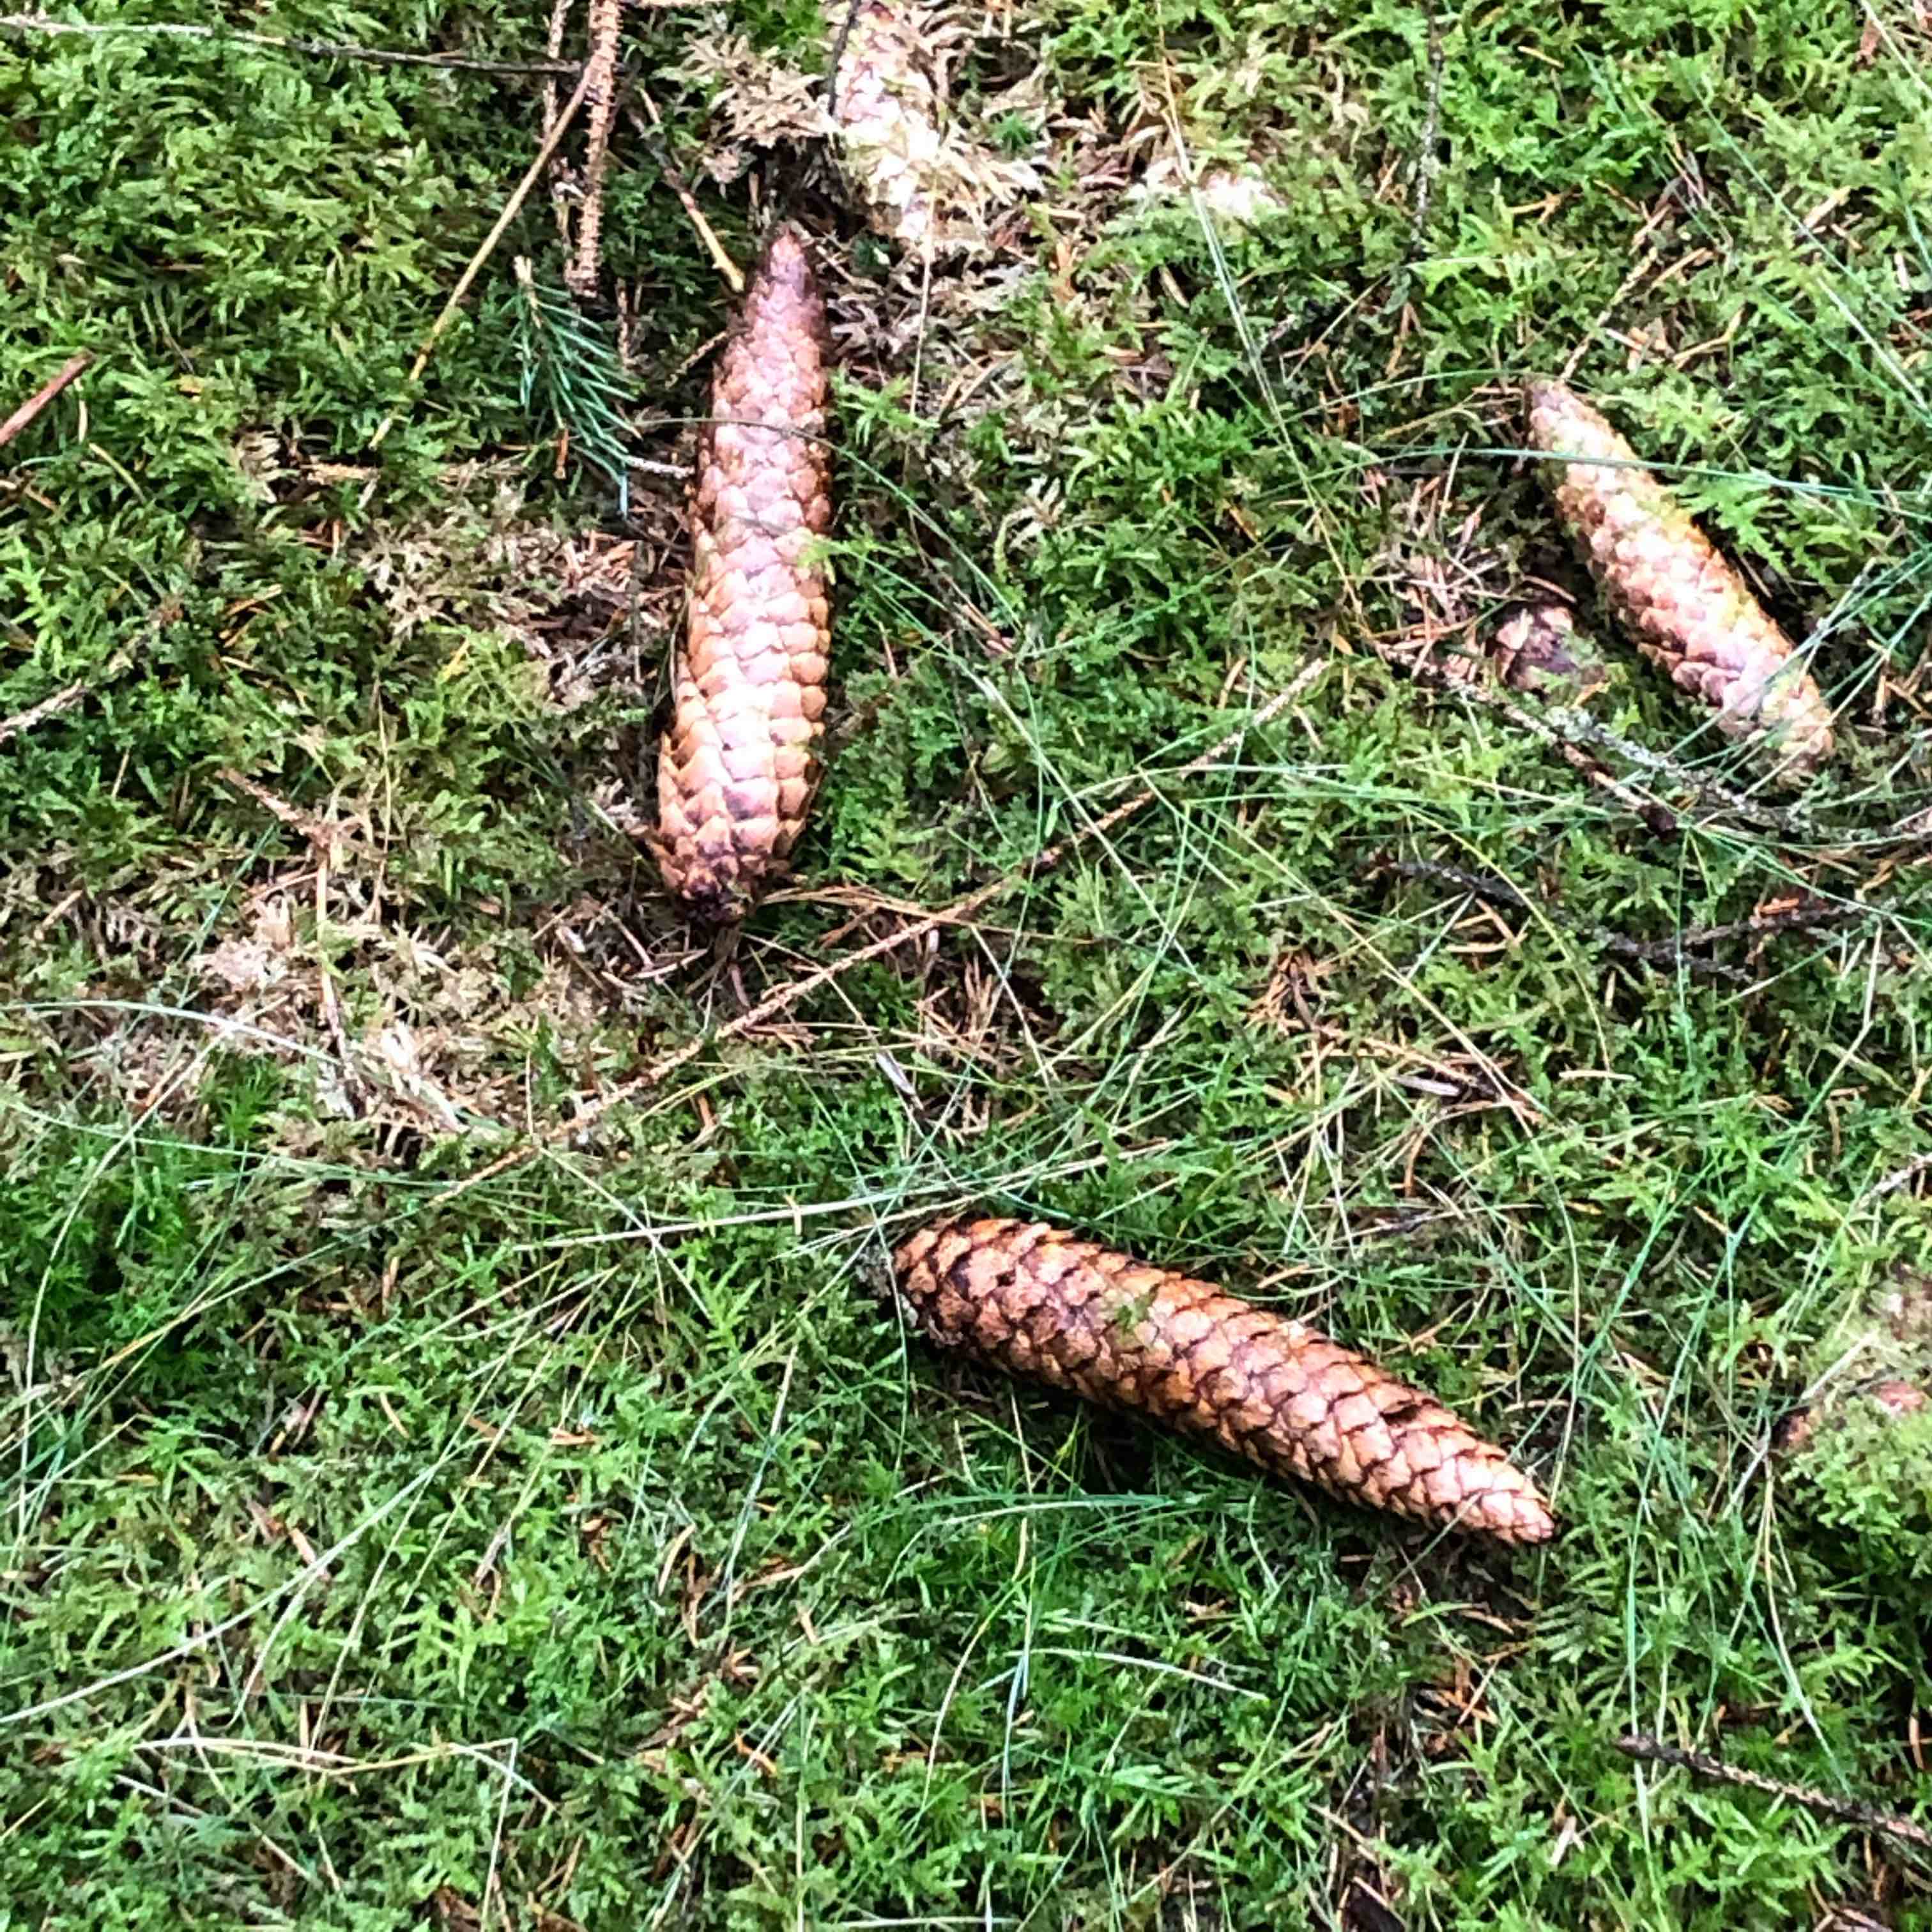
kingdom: Fungi
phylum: Basidiomycota
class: Agaricomycetes
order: Russulales
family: Bondarzewiaceae
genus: Heterobasidion
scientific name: Heterobasidion annosum
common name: almindelig rodfordærver
